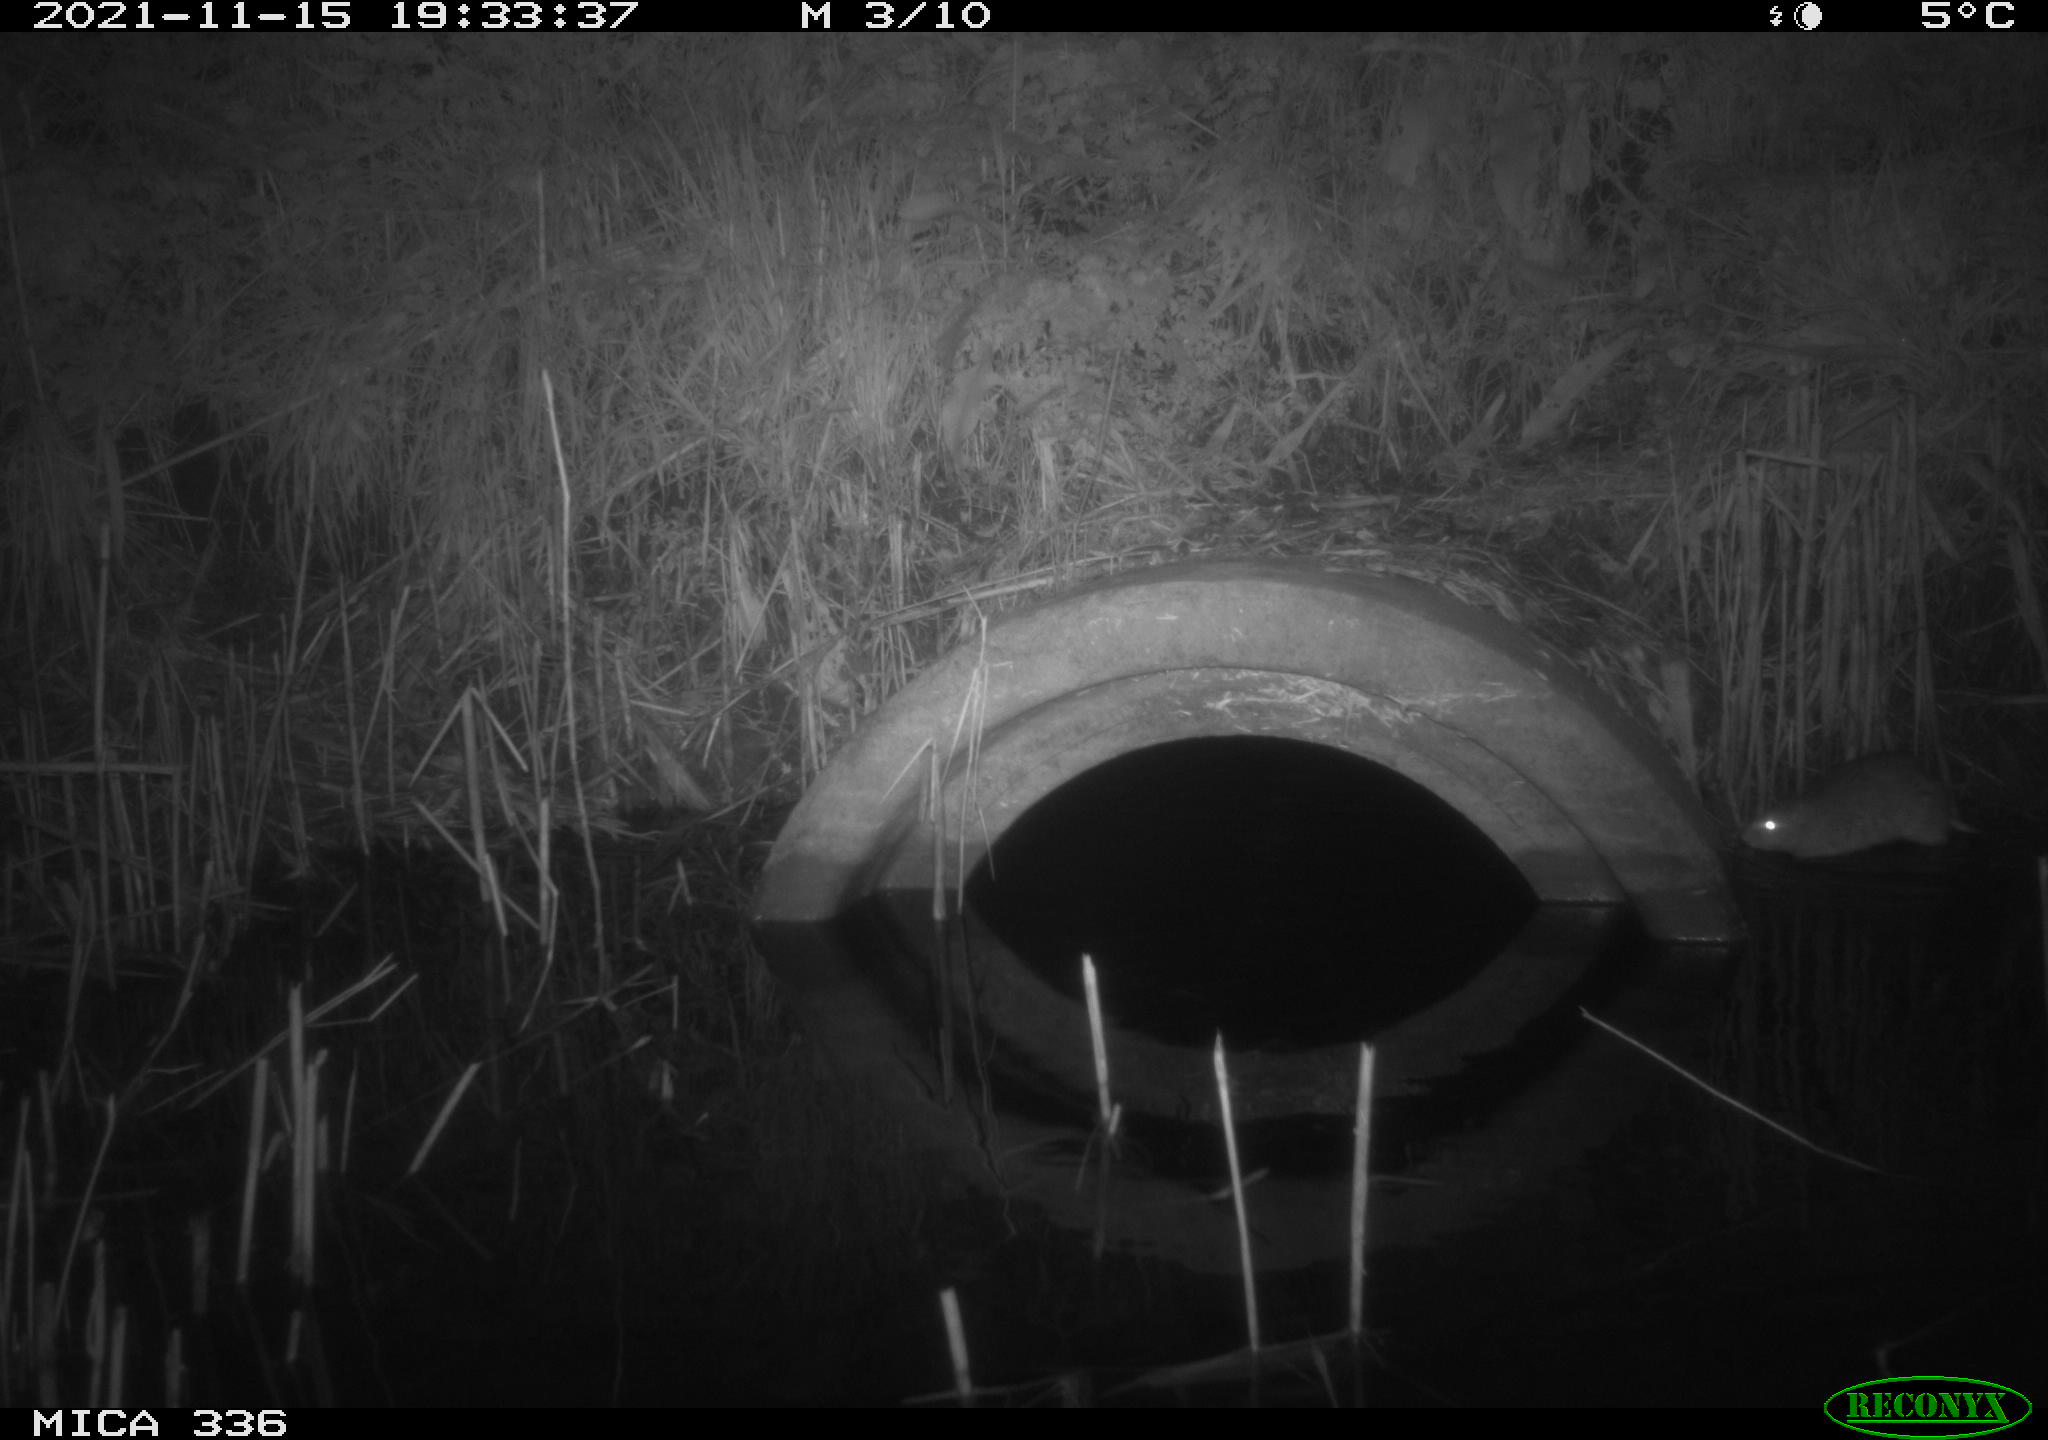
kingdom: Animalia
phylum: Chordata
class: Mammalia
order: Rodentia
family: Muridae
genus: Rattus
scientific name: Rattus norvegicus
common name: Brown rat
